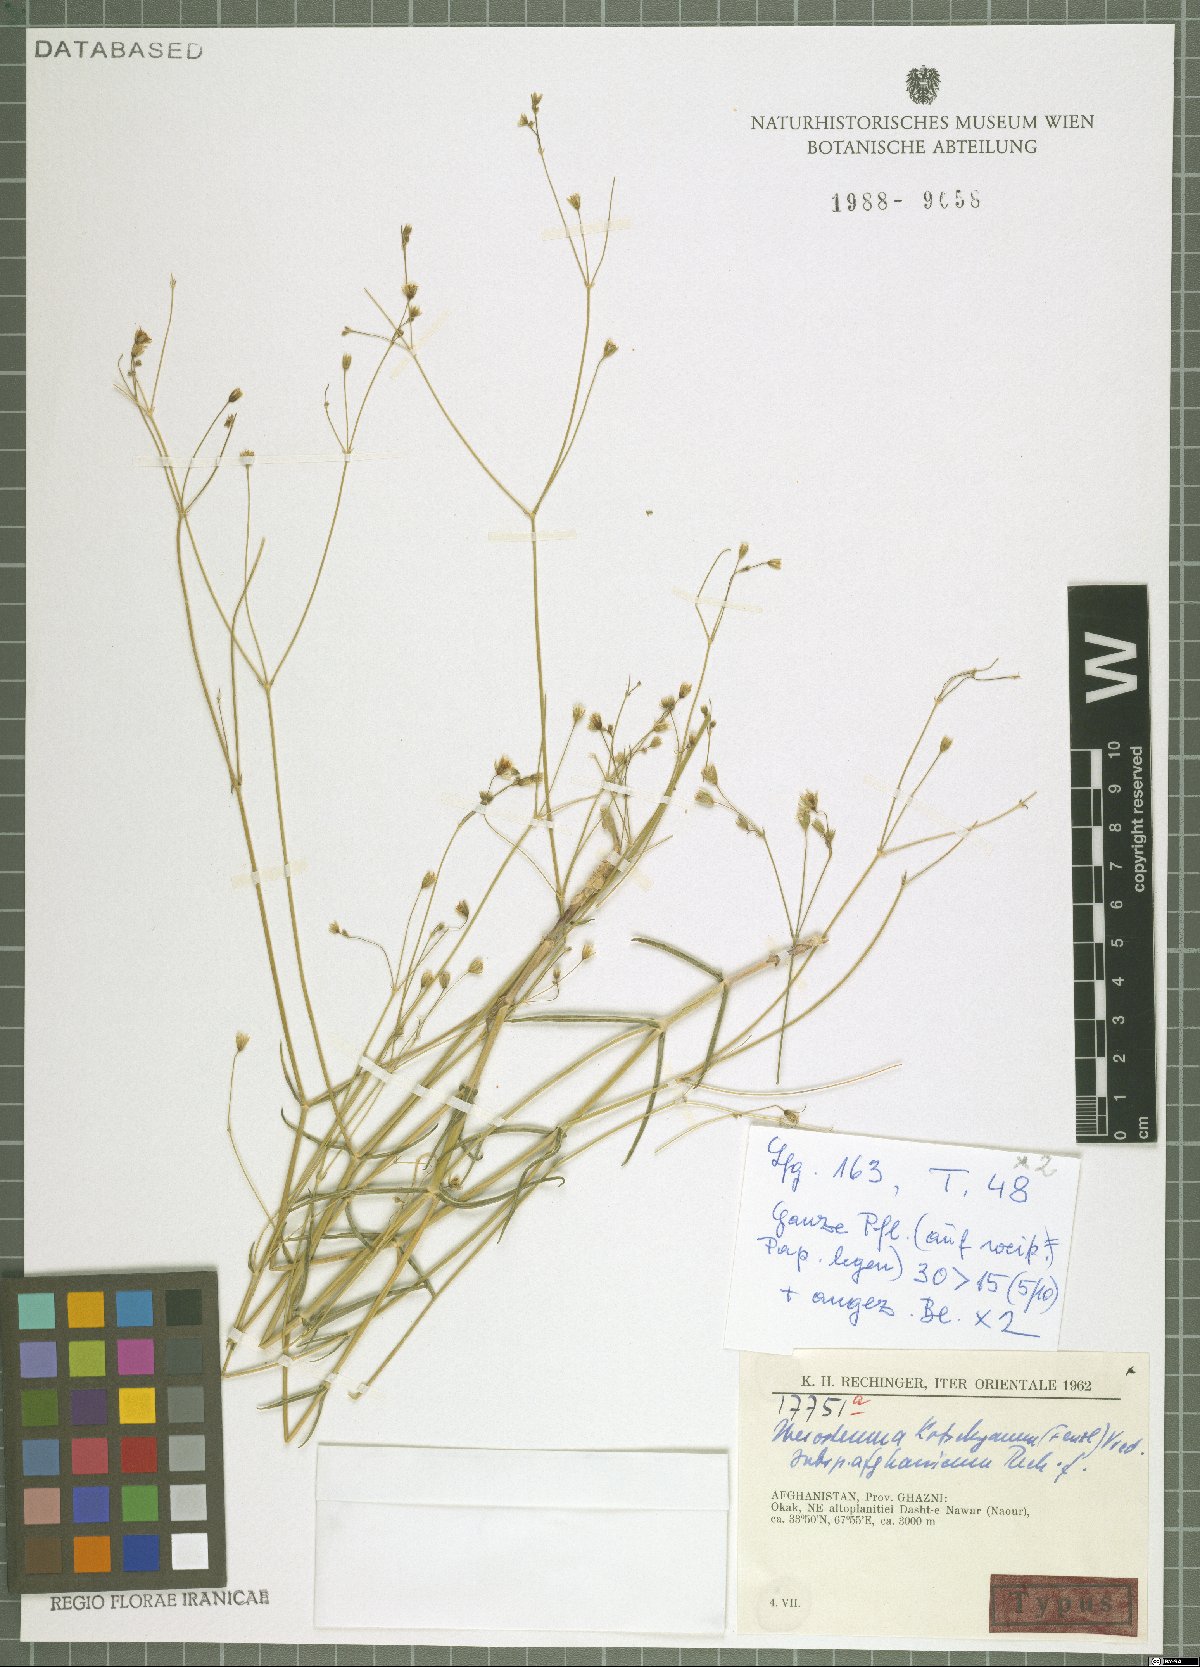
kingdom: Plantae
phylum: Tracheophyta
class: Magnoliopsida
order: Caryophyllales
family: Caryophyllaceae
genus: Mesostemma
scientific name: Mesostemma kotschyanum
